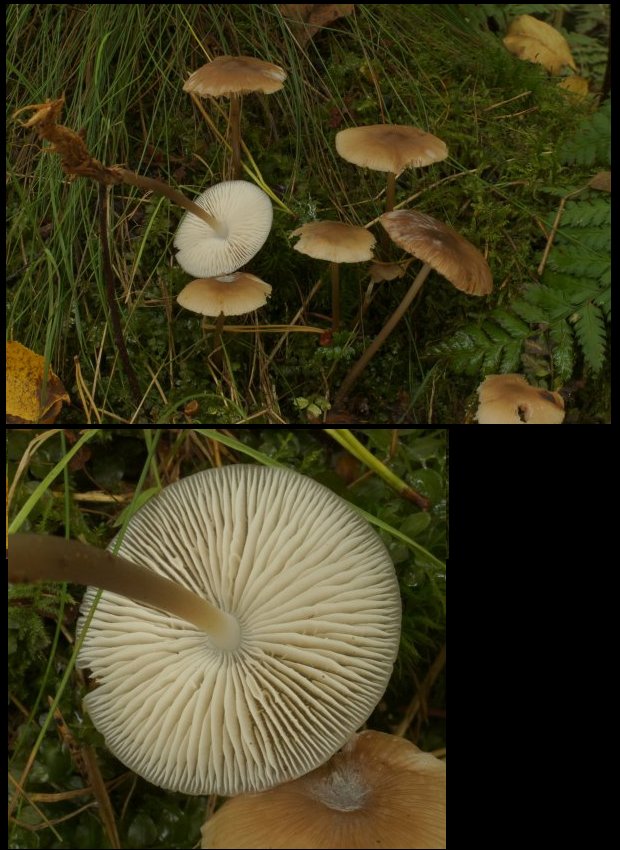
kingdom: Fungi
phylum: Basidiomycota
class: Agaricomycetes
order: Agaricales
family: Mycenaceae
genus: Mycena
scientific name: Mycena polygramma
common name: mangestribet huesvamp
